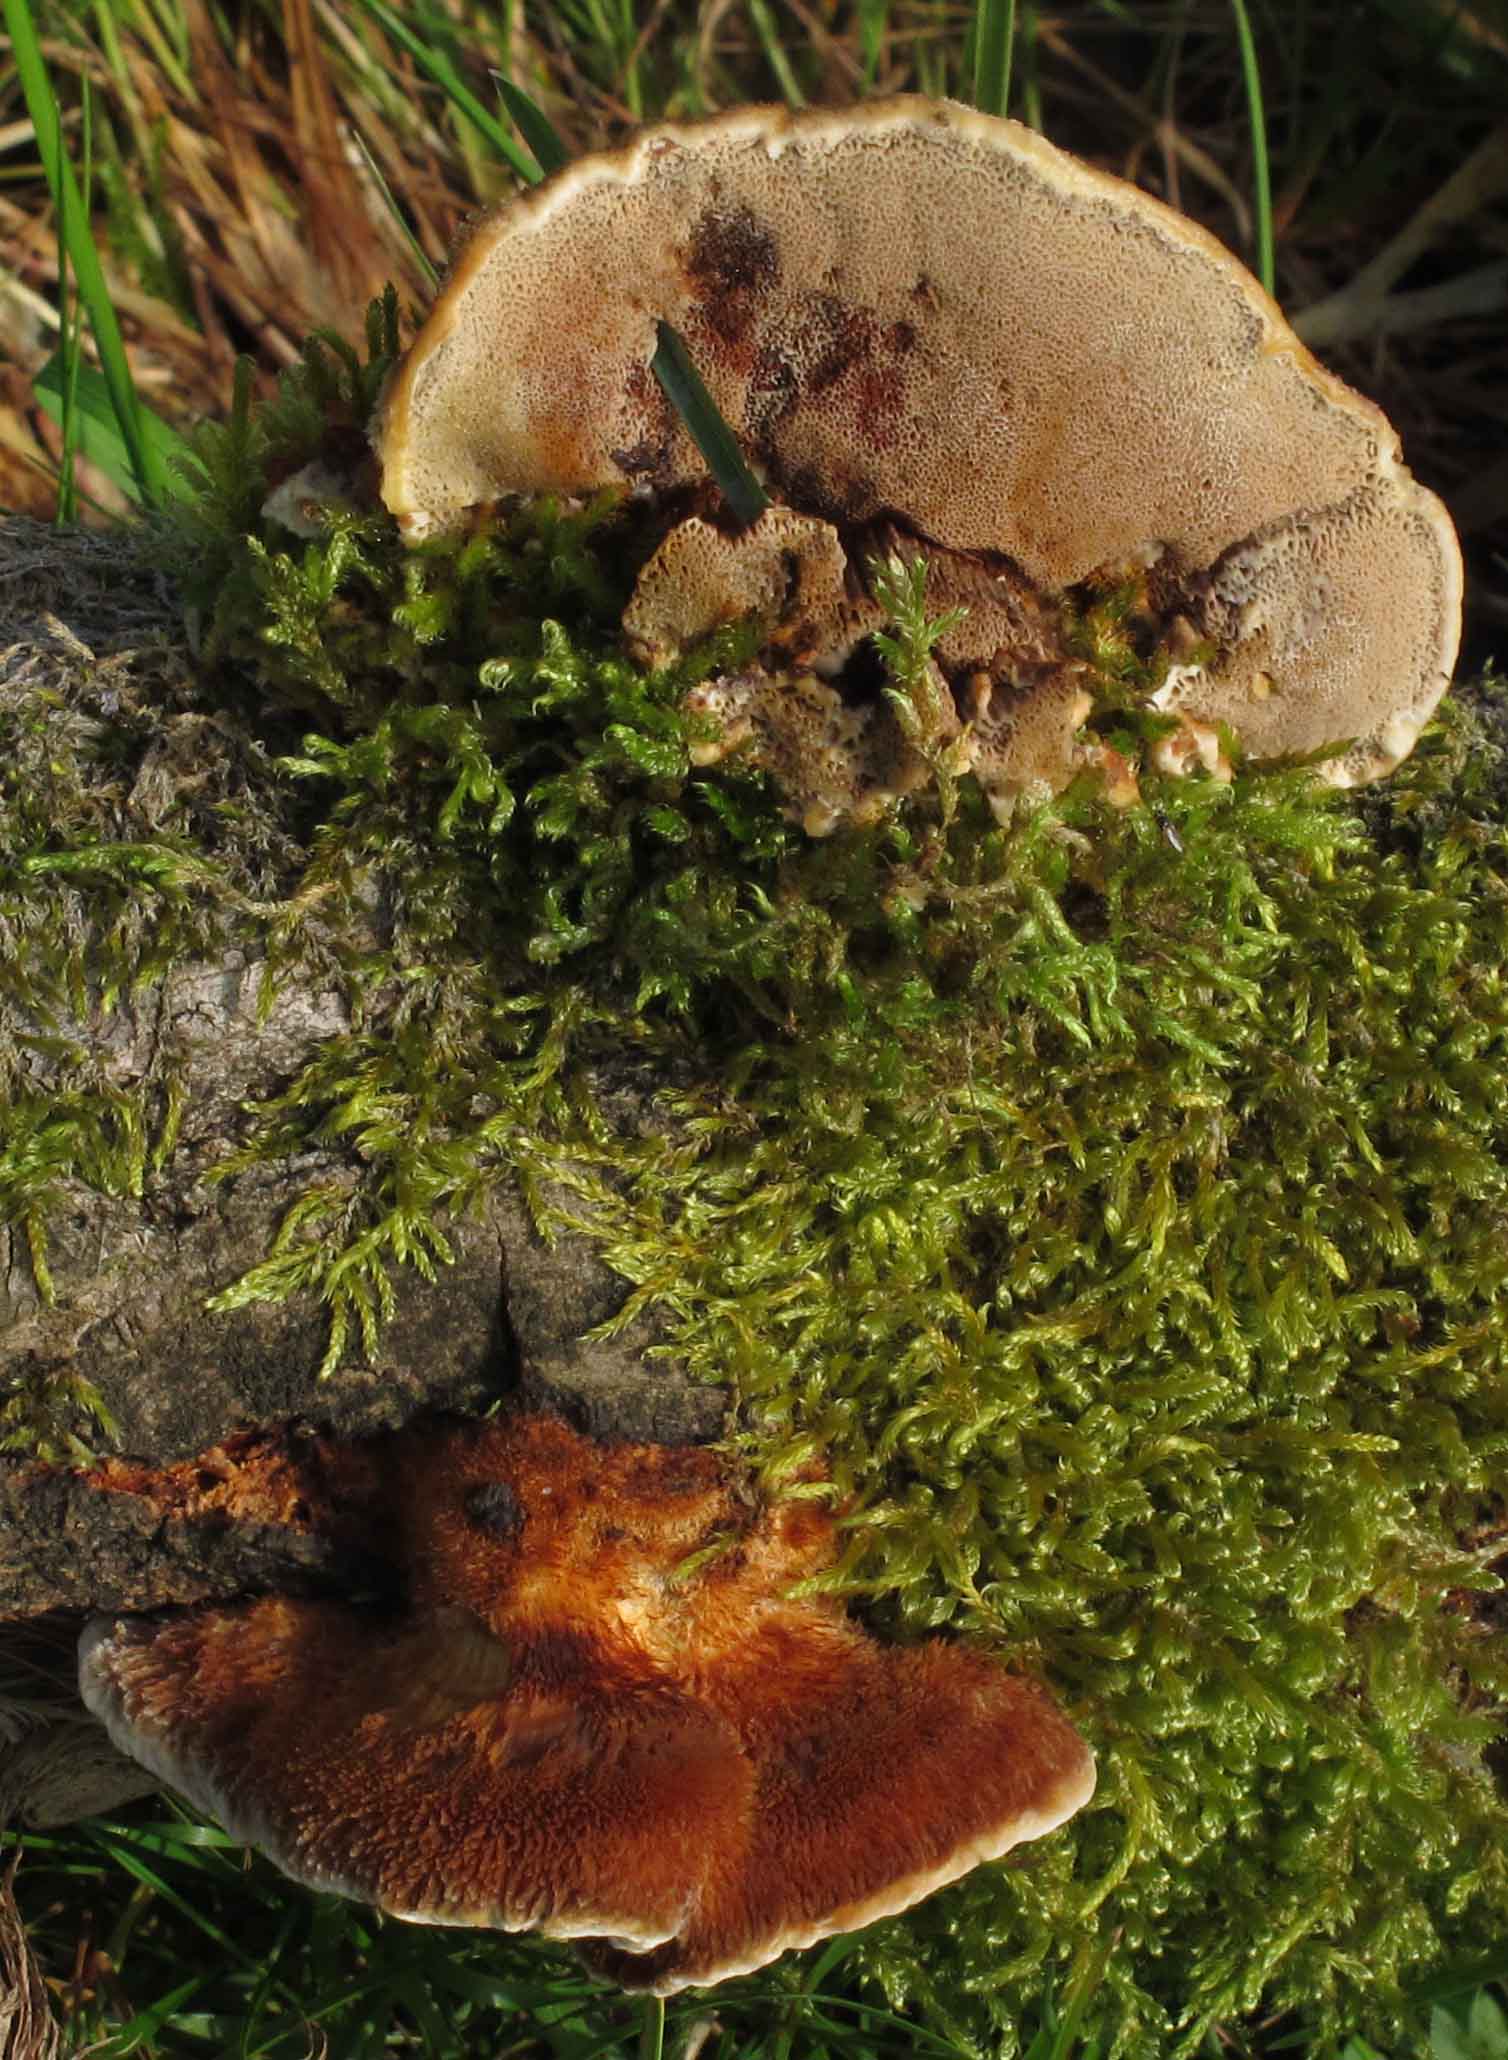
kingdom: Fungi
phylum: Basidiomycota
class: Agaricomycetes
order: Hymenochaetales
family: Hymenochaetaceae
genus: Inocutis
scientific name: Inocutis rheades
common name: ræve-spejlporesvamp
